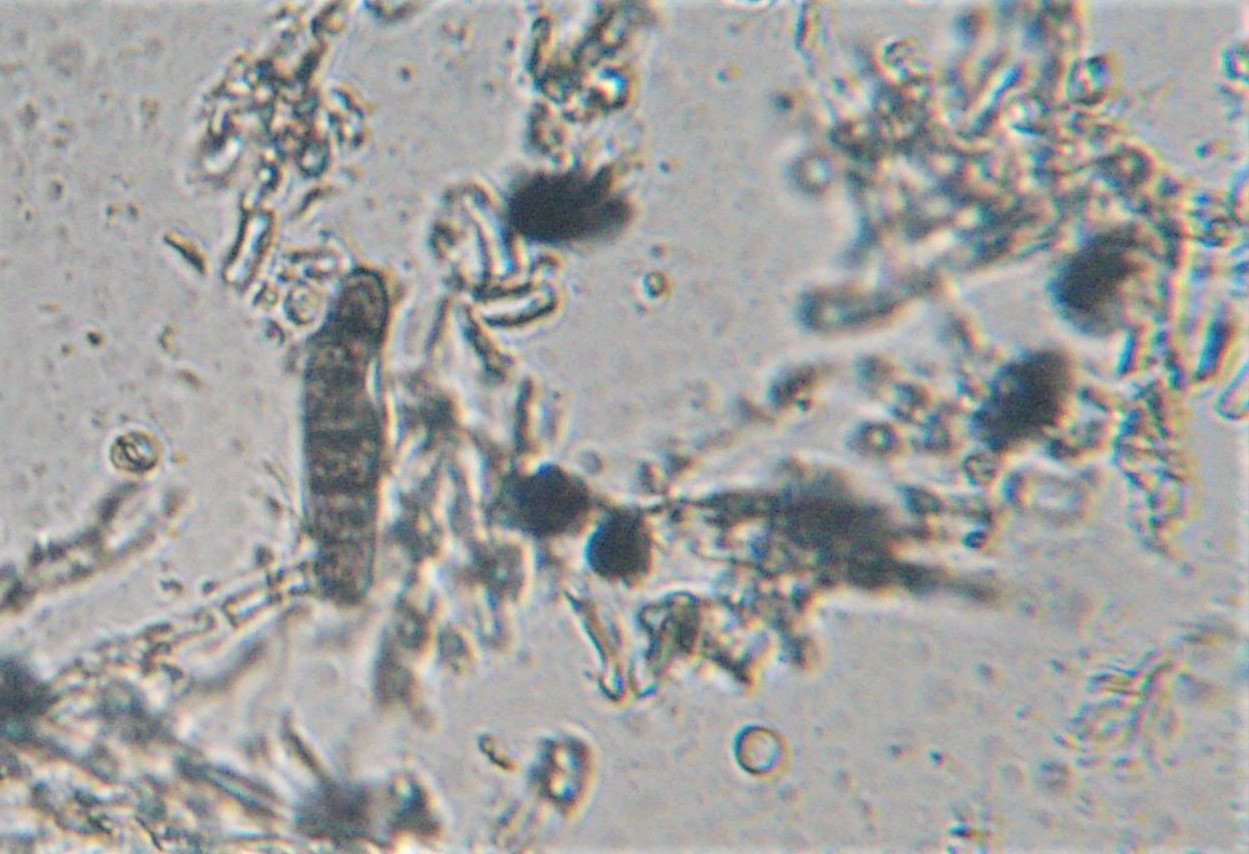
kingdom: Fungi
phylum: Ascomycota
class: Sordariomycetes
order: Sordariales
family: Helminthosphaeriaceae
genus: Helminthosphaeria
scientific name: Helminthosphaeria
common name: svampesnyltekerne
